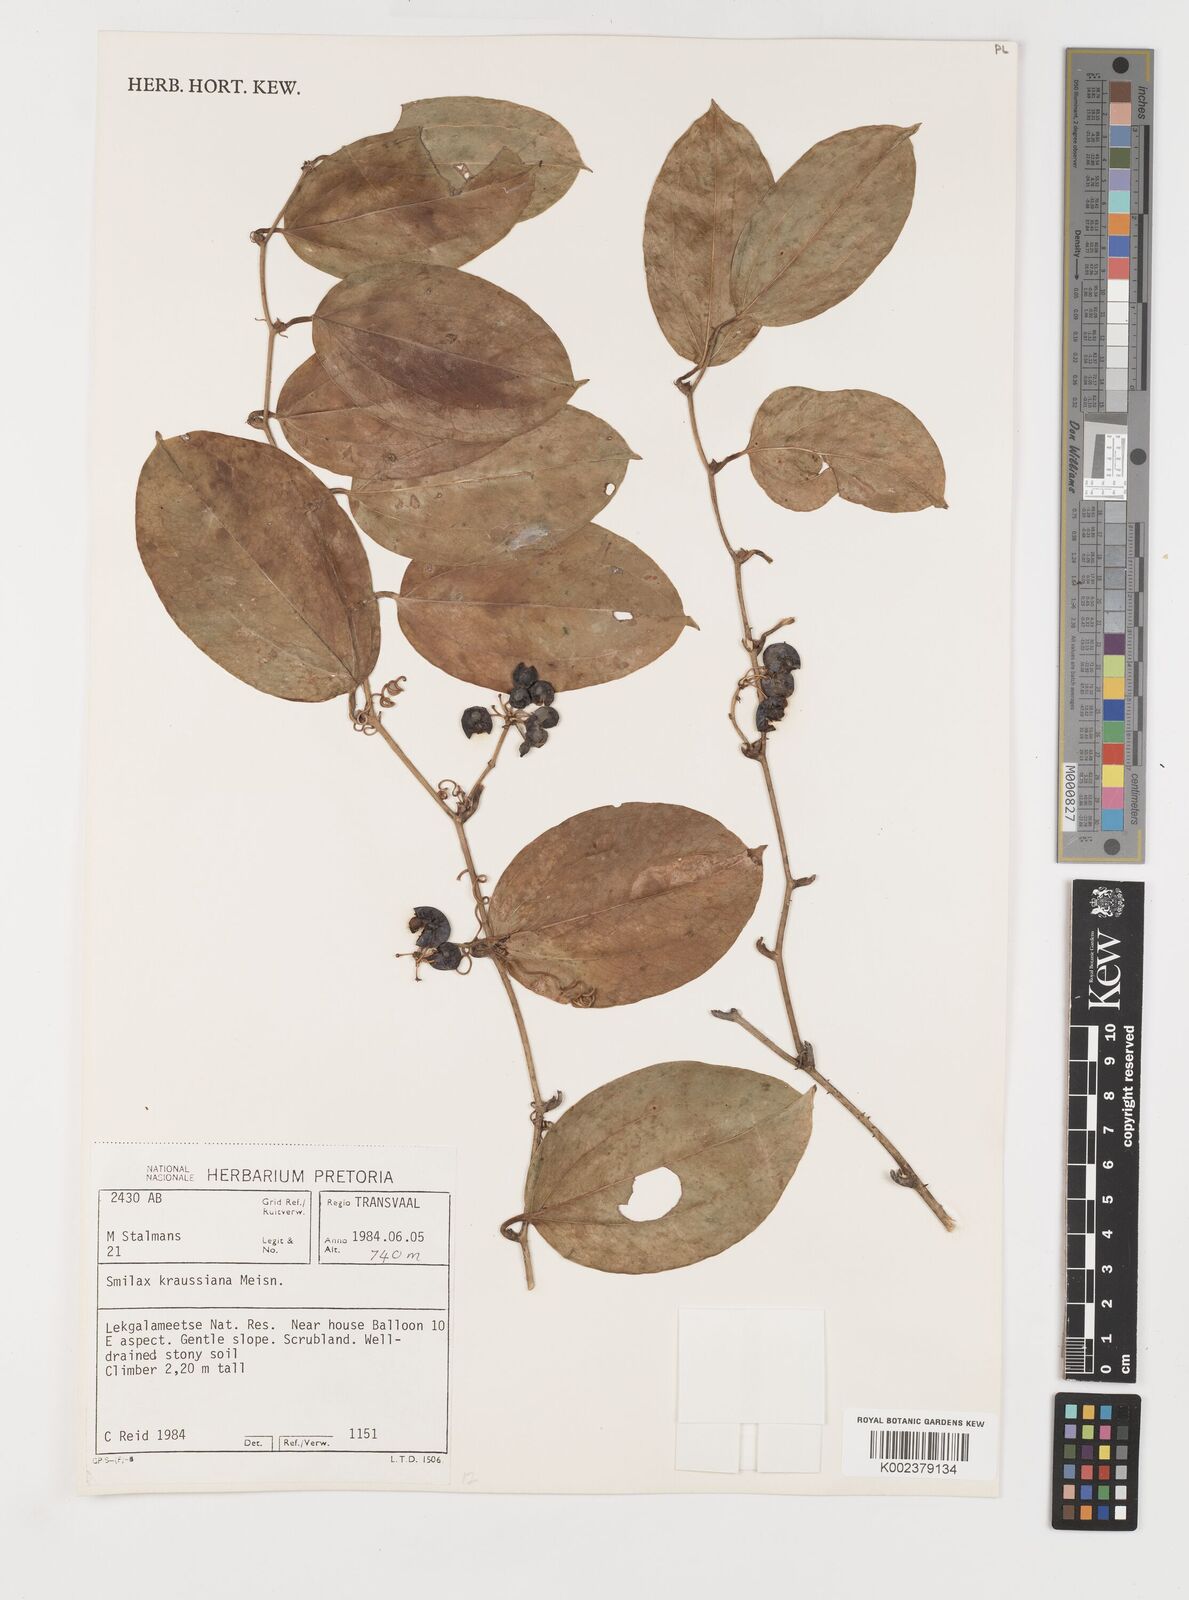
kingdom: Plantae
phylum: Tracheophyta
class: Liliopsida
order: Liliales
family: Smilacaceae
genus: Smilax
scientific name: Smilax anceps
